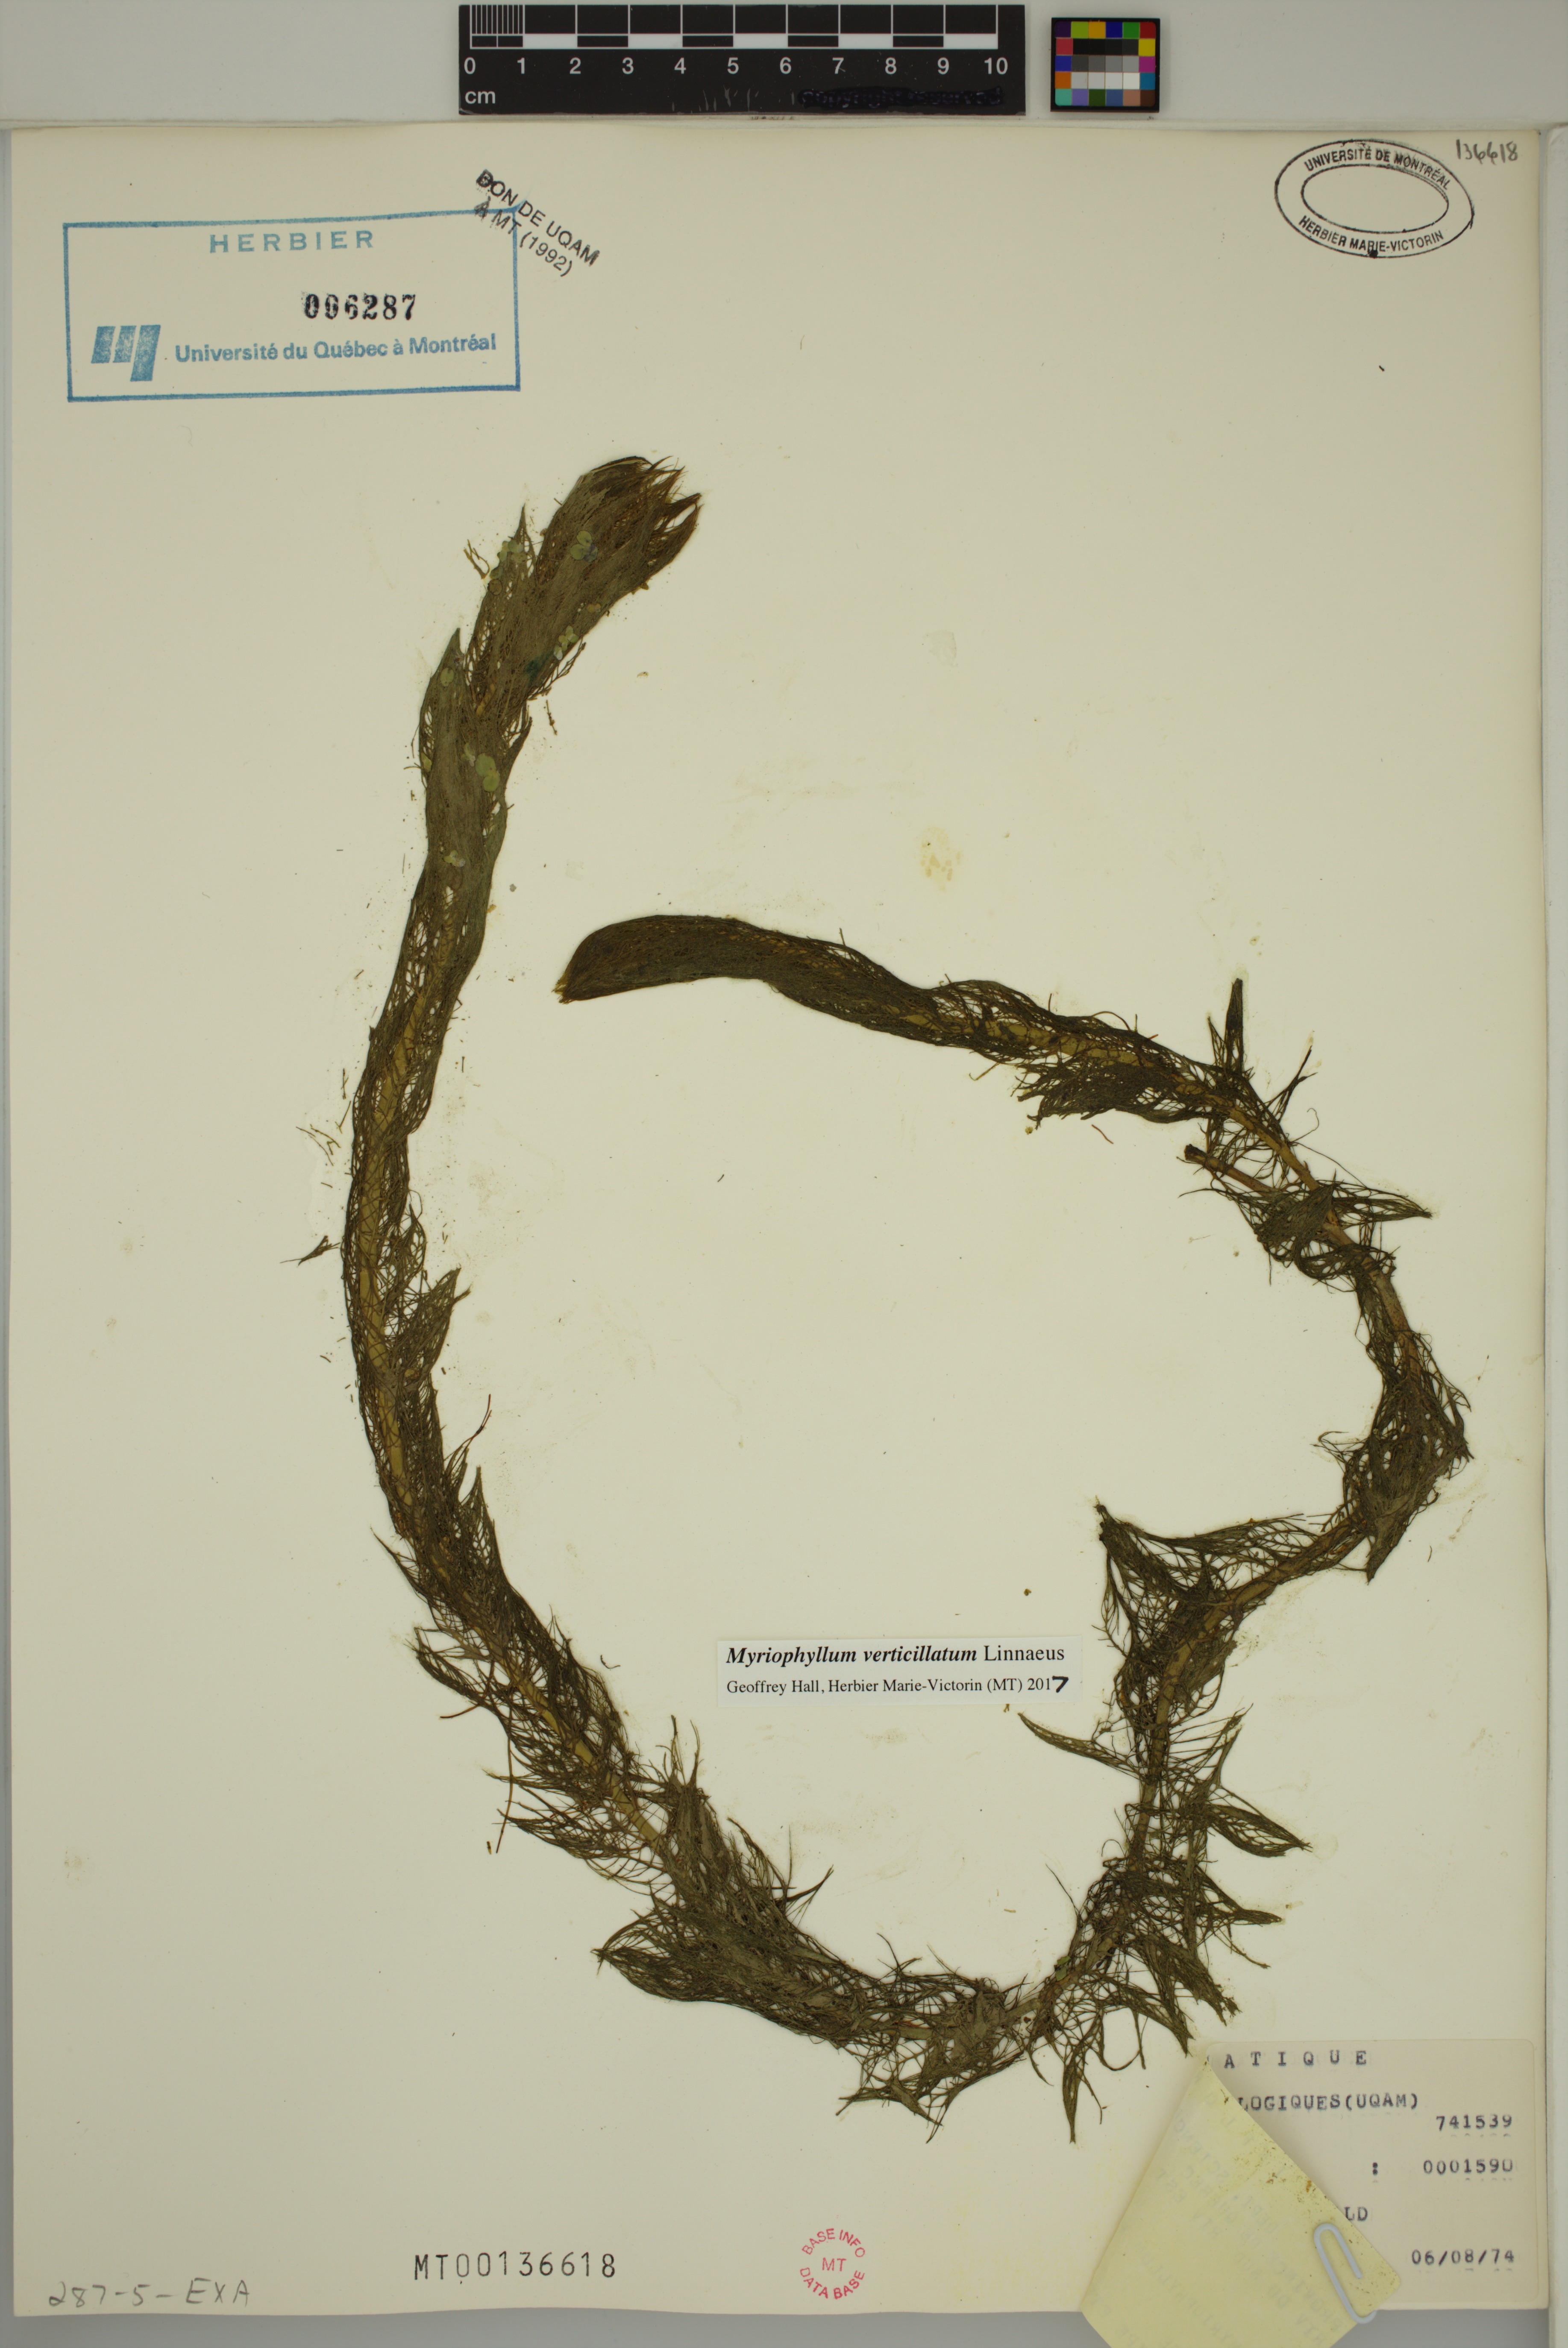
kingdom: Plantae
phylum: Tracheophyta
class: Magnoliopsida
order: Saxifragales
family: Haloragaceae
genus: Myriophyllum
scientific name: Myriophyllum verticillatum
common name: Whorled water-milfoil
